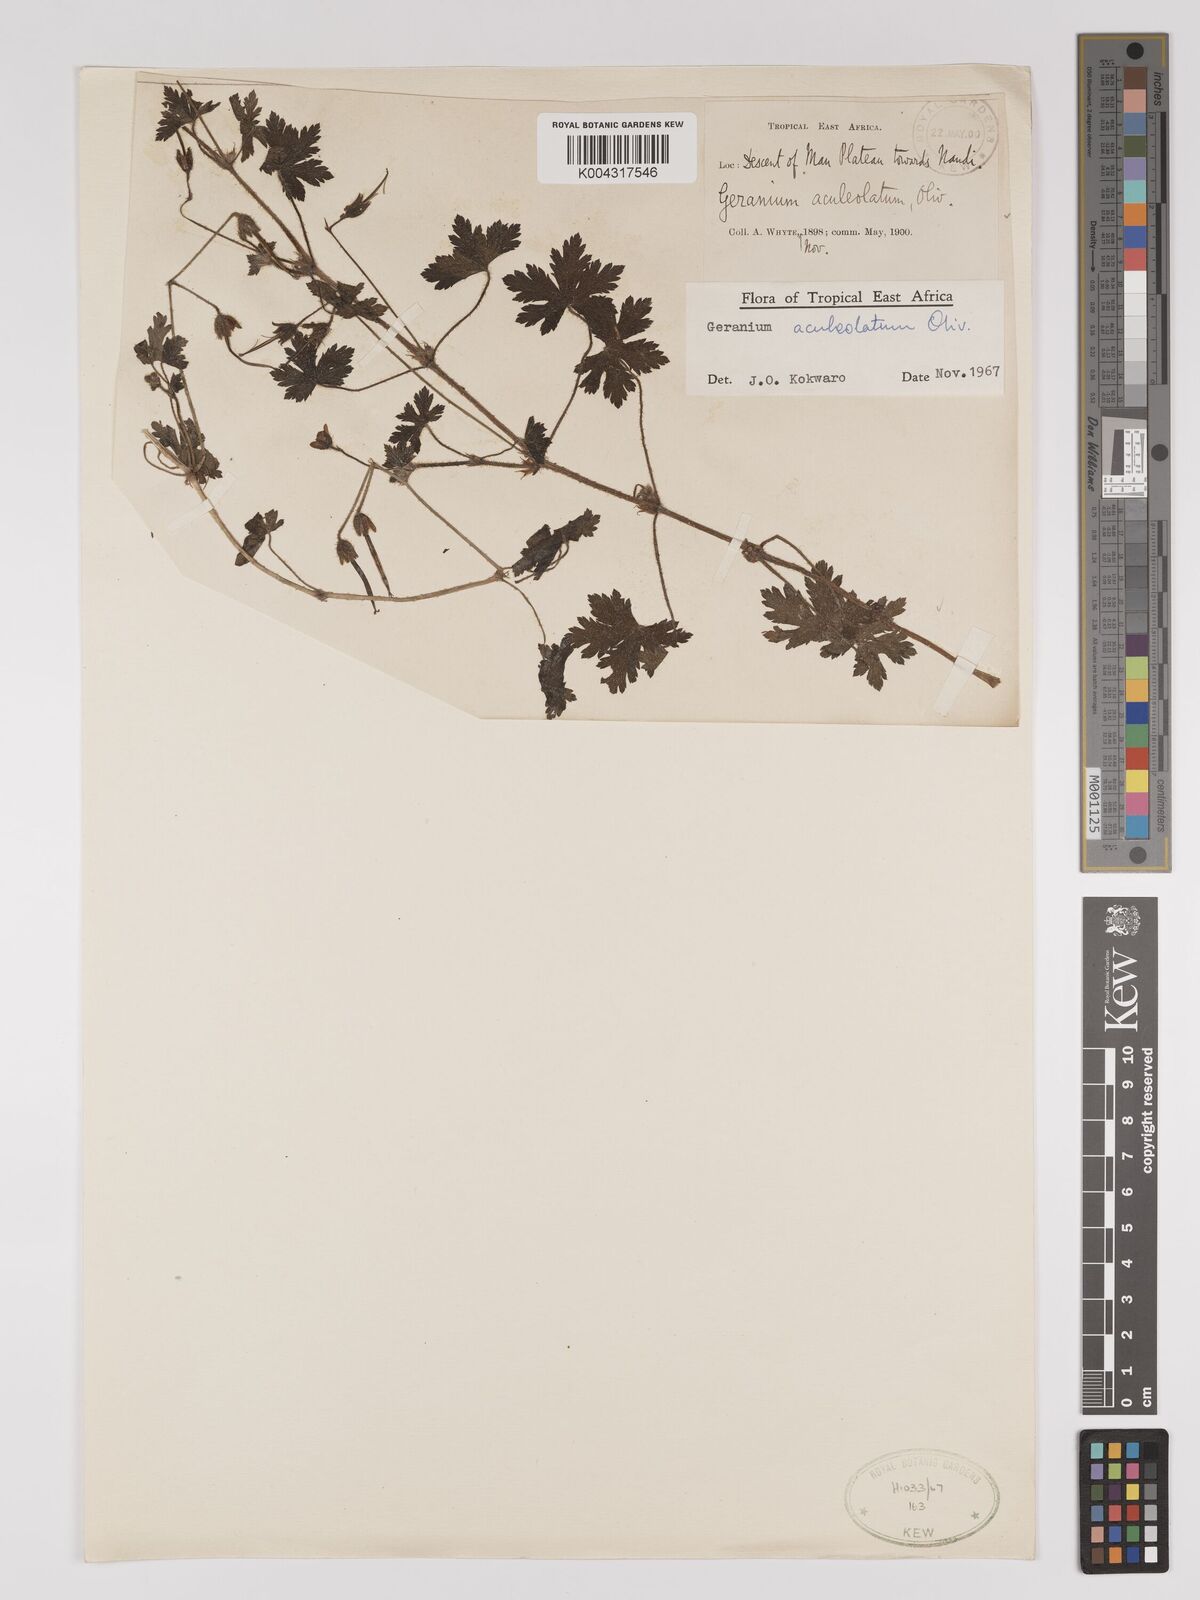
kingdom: Plantae
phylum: Tracheophyta
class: Magnoliopsida
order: Geraniales
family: Geraniaceae
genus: Geranium
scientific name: Geranium aculeolatum
